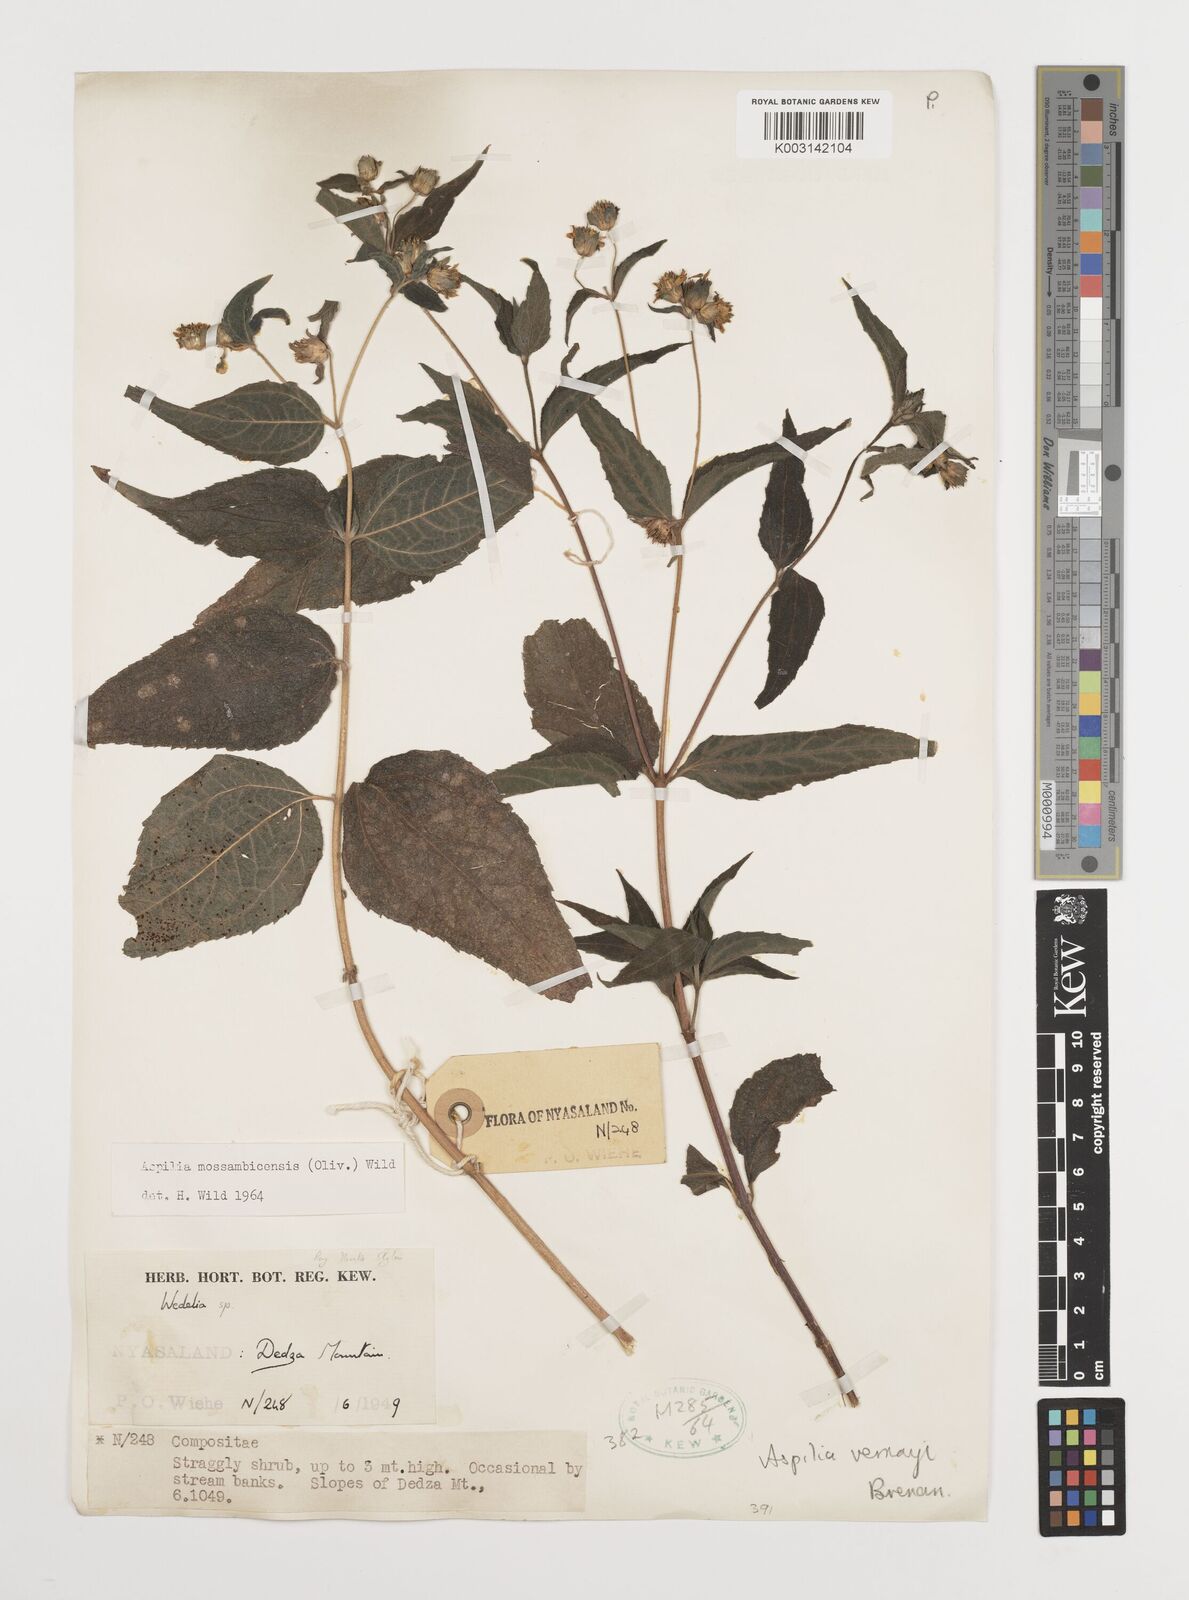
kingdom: Plantae
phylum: Tracheophyta
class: Magnoliopsida
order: Asterales
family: Asteraceae
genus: Aspilia
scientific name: Aspilia mossambicensis
